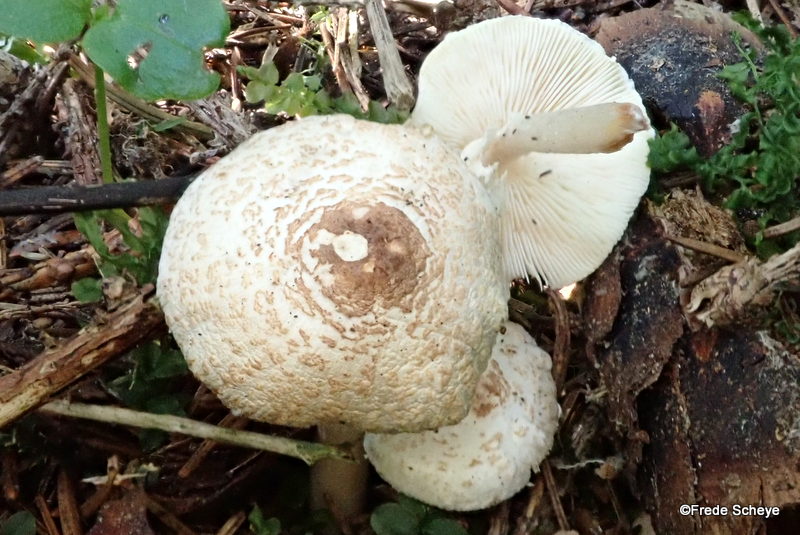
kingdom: Fungi
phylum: Basidiomycota
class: Agaricomycetes
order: Agaricales
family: Agaricaceae
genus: Lepiota
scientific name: Lepiota cristata
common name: stinkende parasolhat
